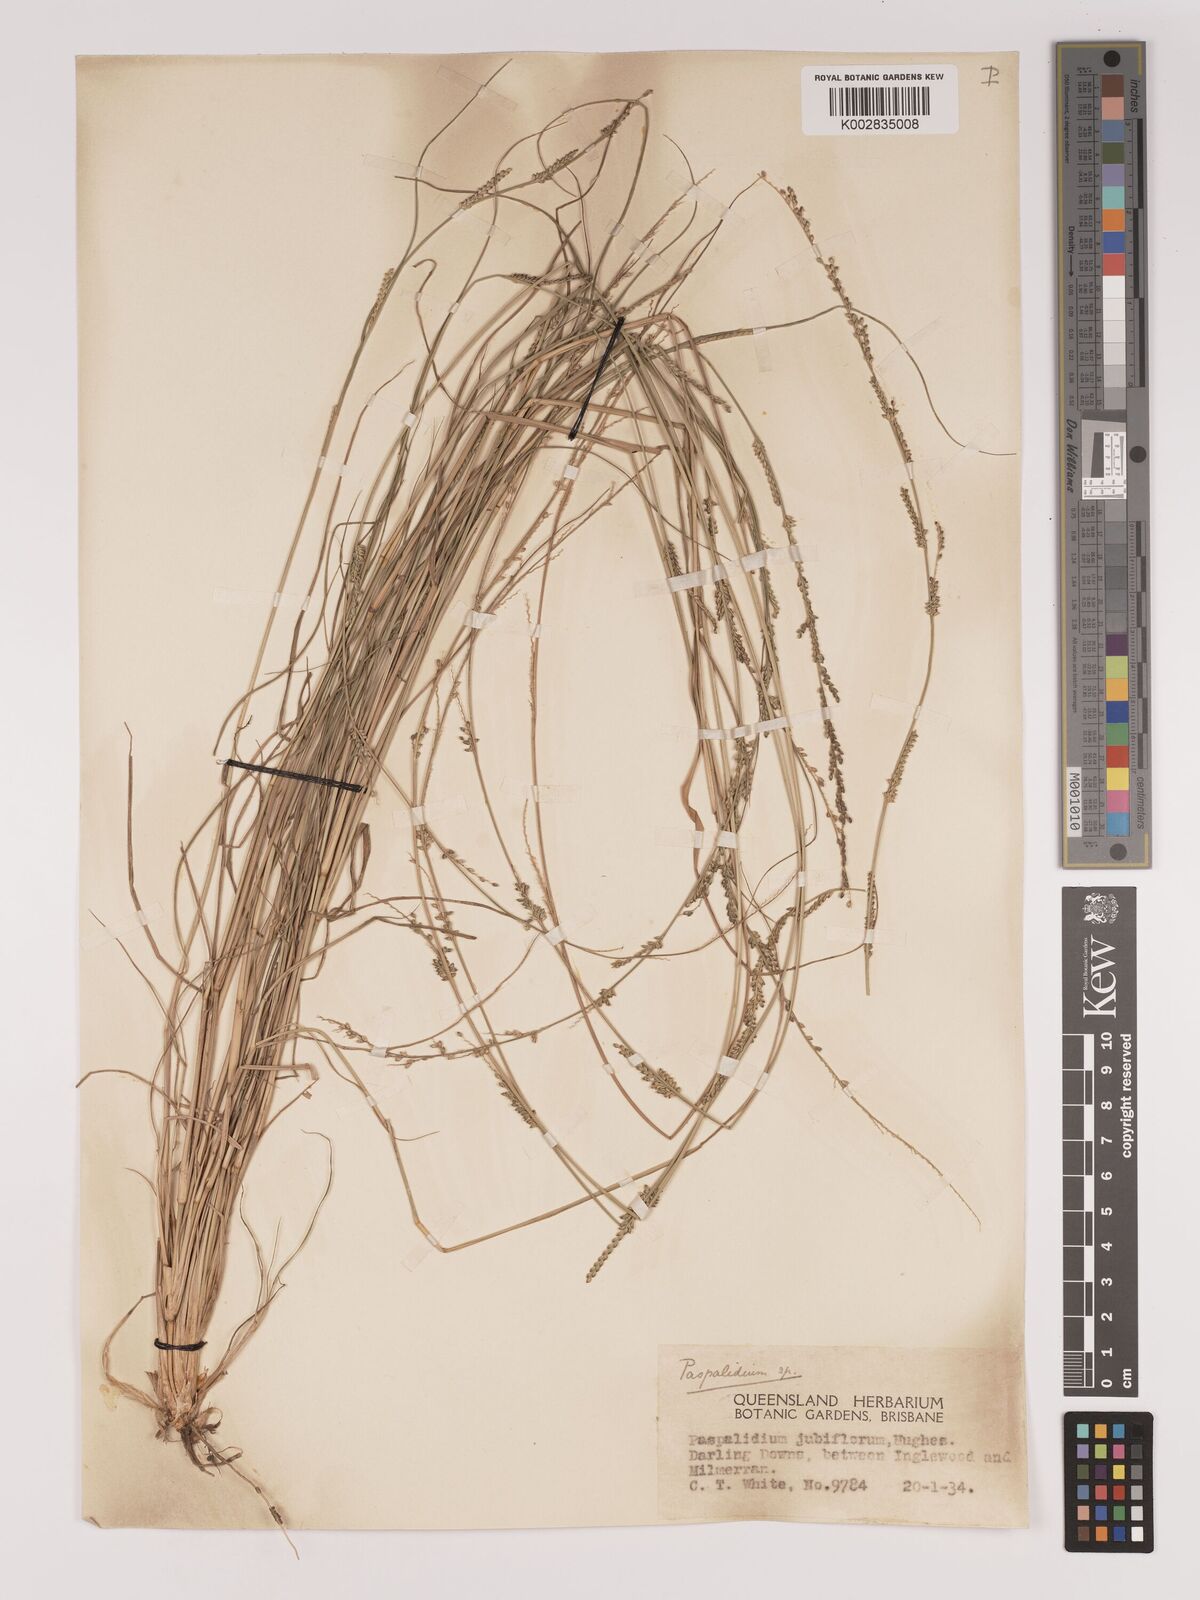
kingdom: Plantae
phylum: Tracheophyta
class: Liliopsida
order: Poales
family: Poaceae
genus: Setaria
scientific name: Setaria
